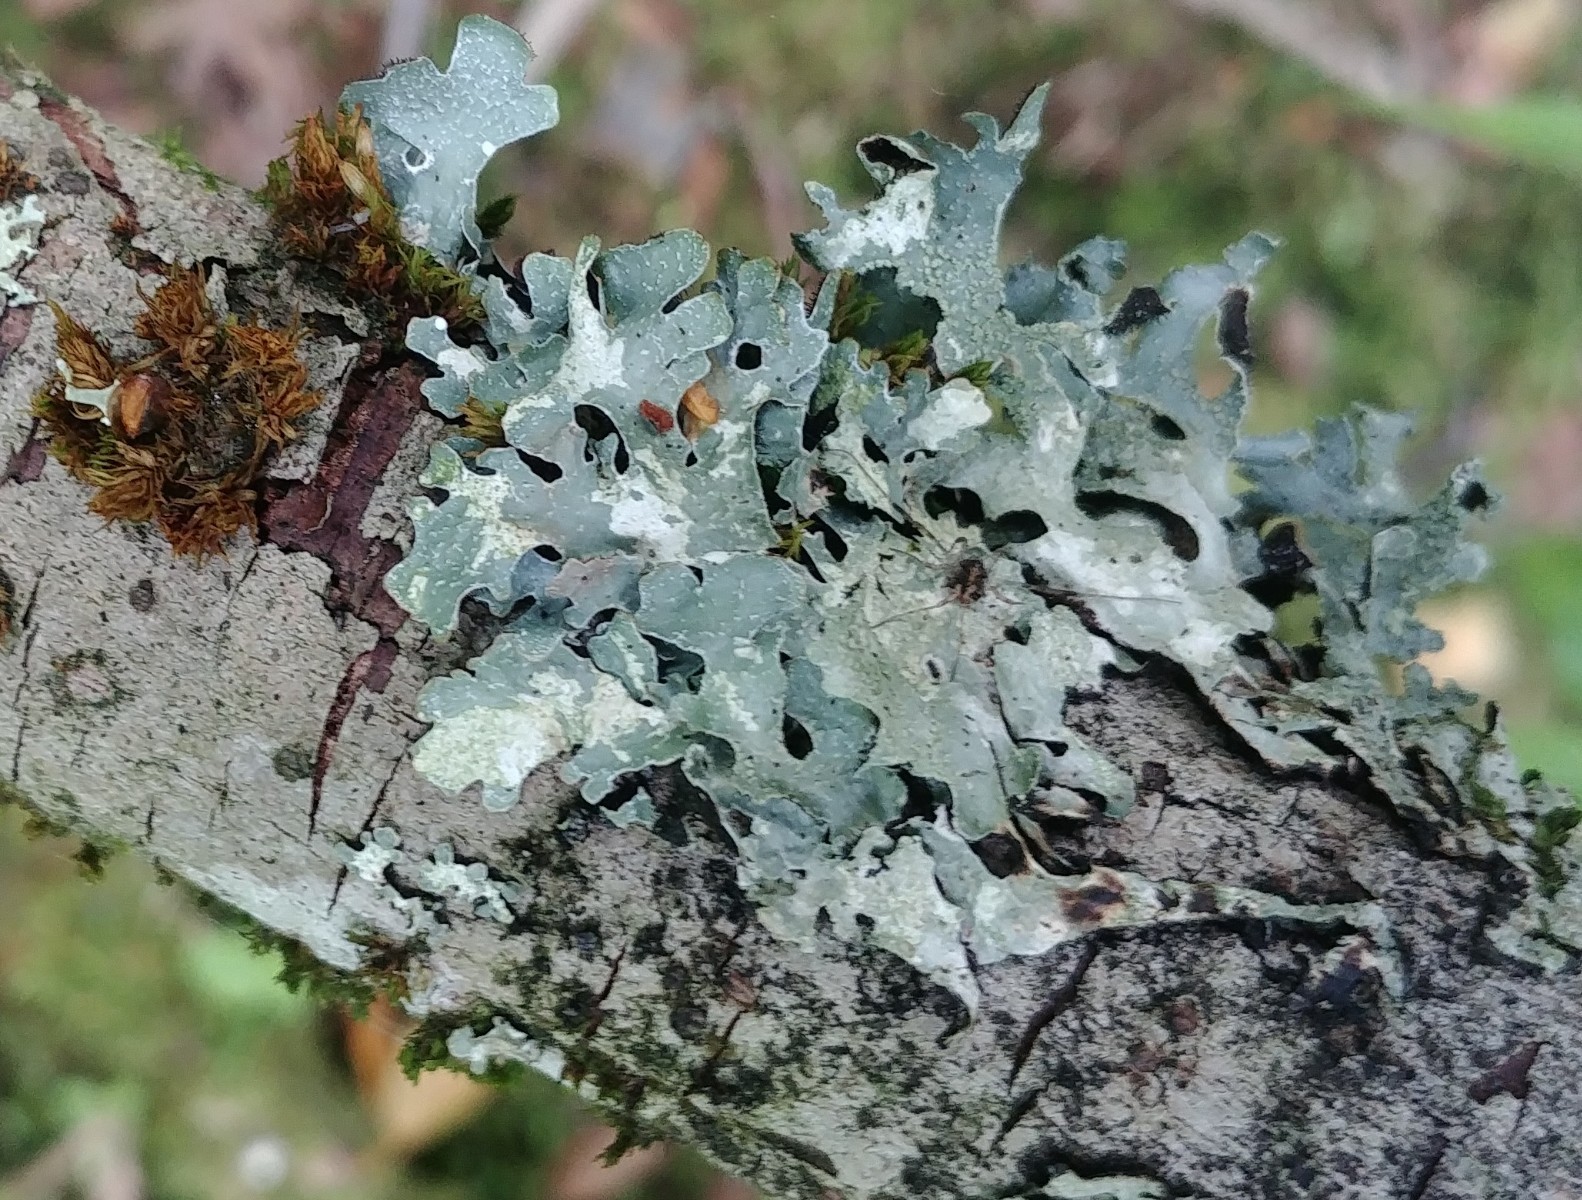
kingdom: Fungi
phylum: Ascomycota
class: Lecanoromycetes
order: Lecanorales
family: Parmeliaceae
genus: Parmelia
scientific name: Parmelia sulcata
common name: rynket skållav
